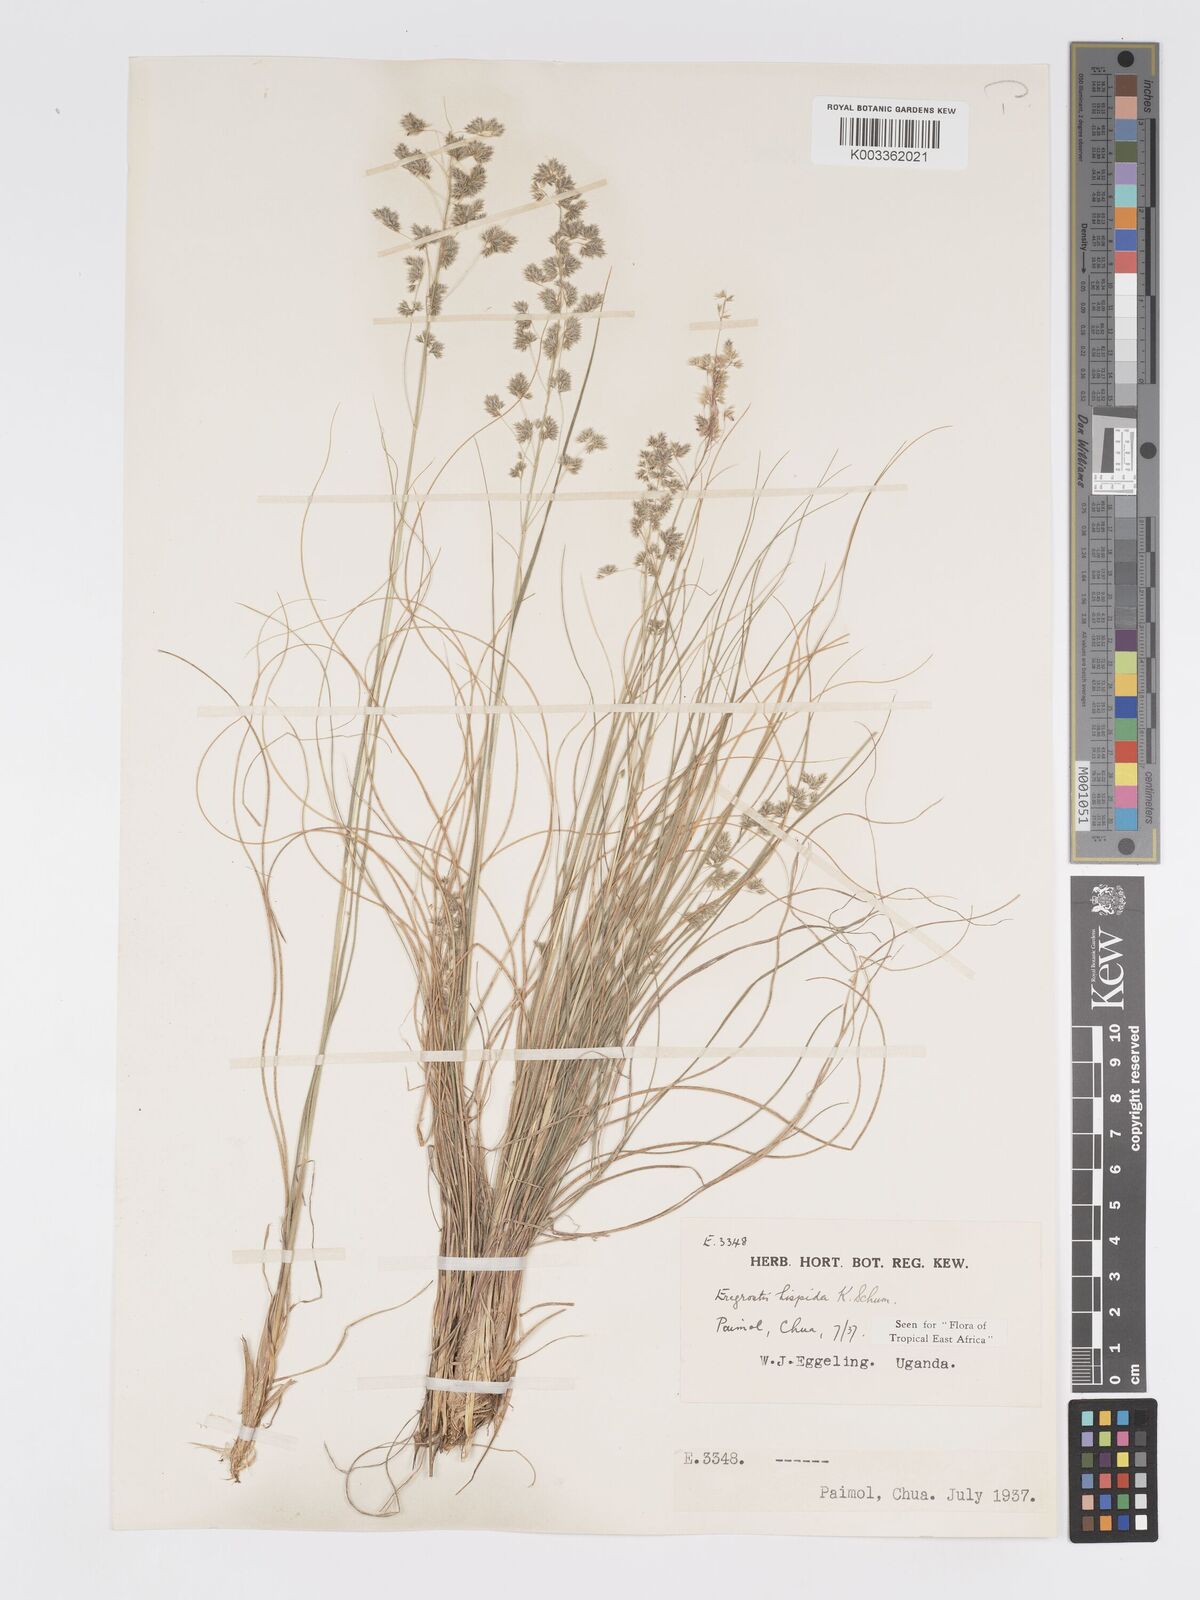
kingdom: Plantae
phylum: Tracheophyta
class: Liliopsida
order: Poales
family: Poaceae
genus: Eragrostis
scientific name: Eragrostis hispida
